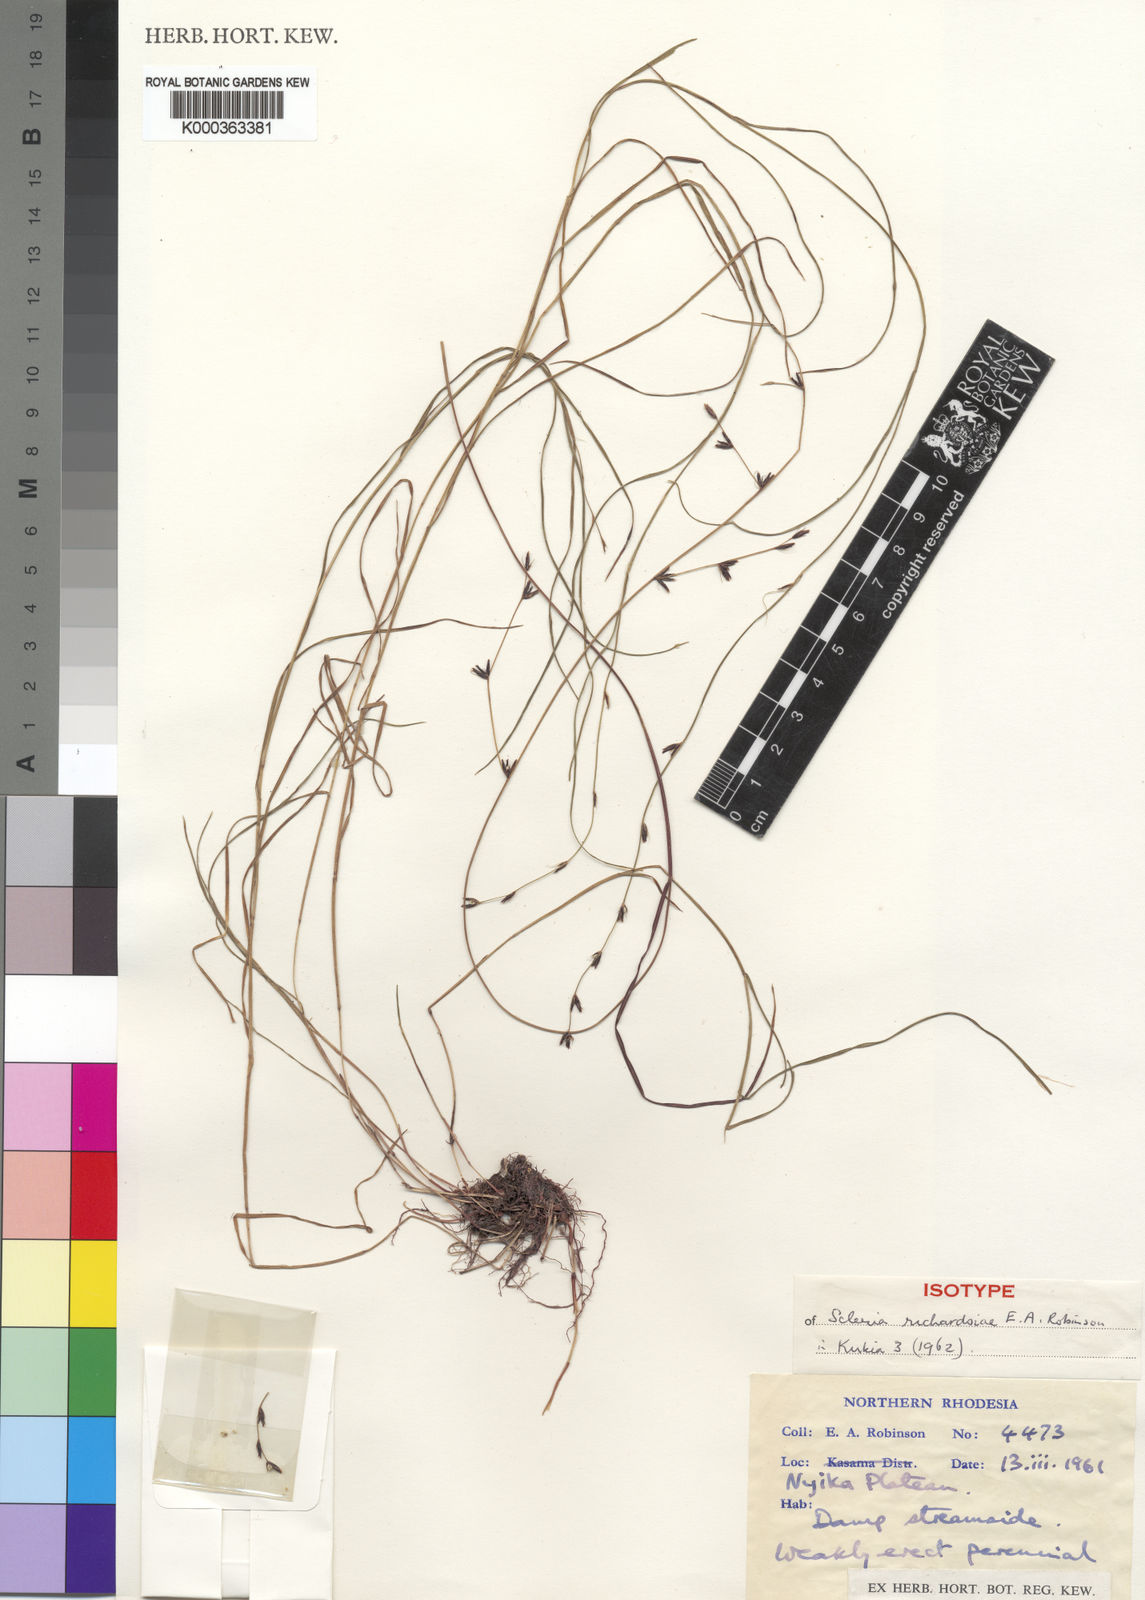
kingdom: Plantae
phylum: Tracheophyta
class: Liliopsida
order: Poales
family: Cyperaceae
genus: Scleria
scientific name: Scleria richardsiae
